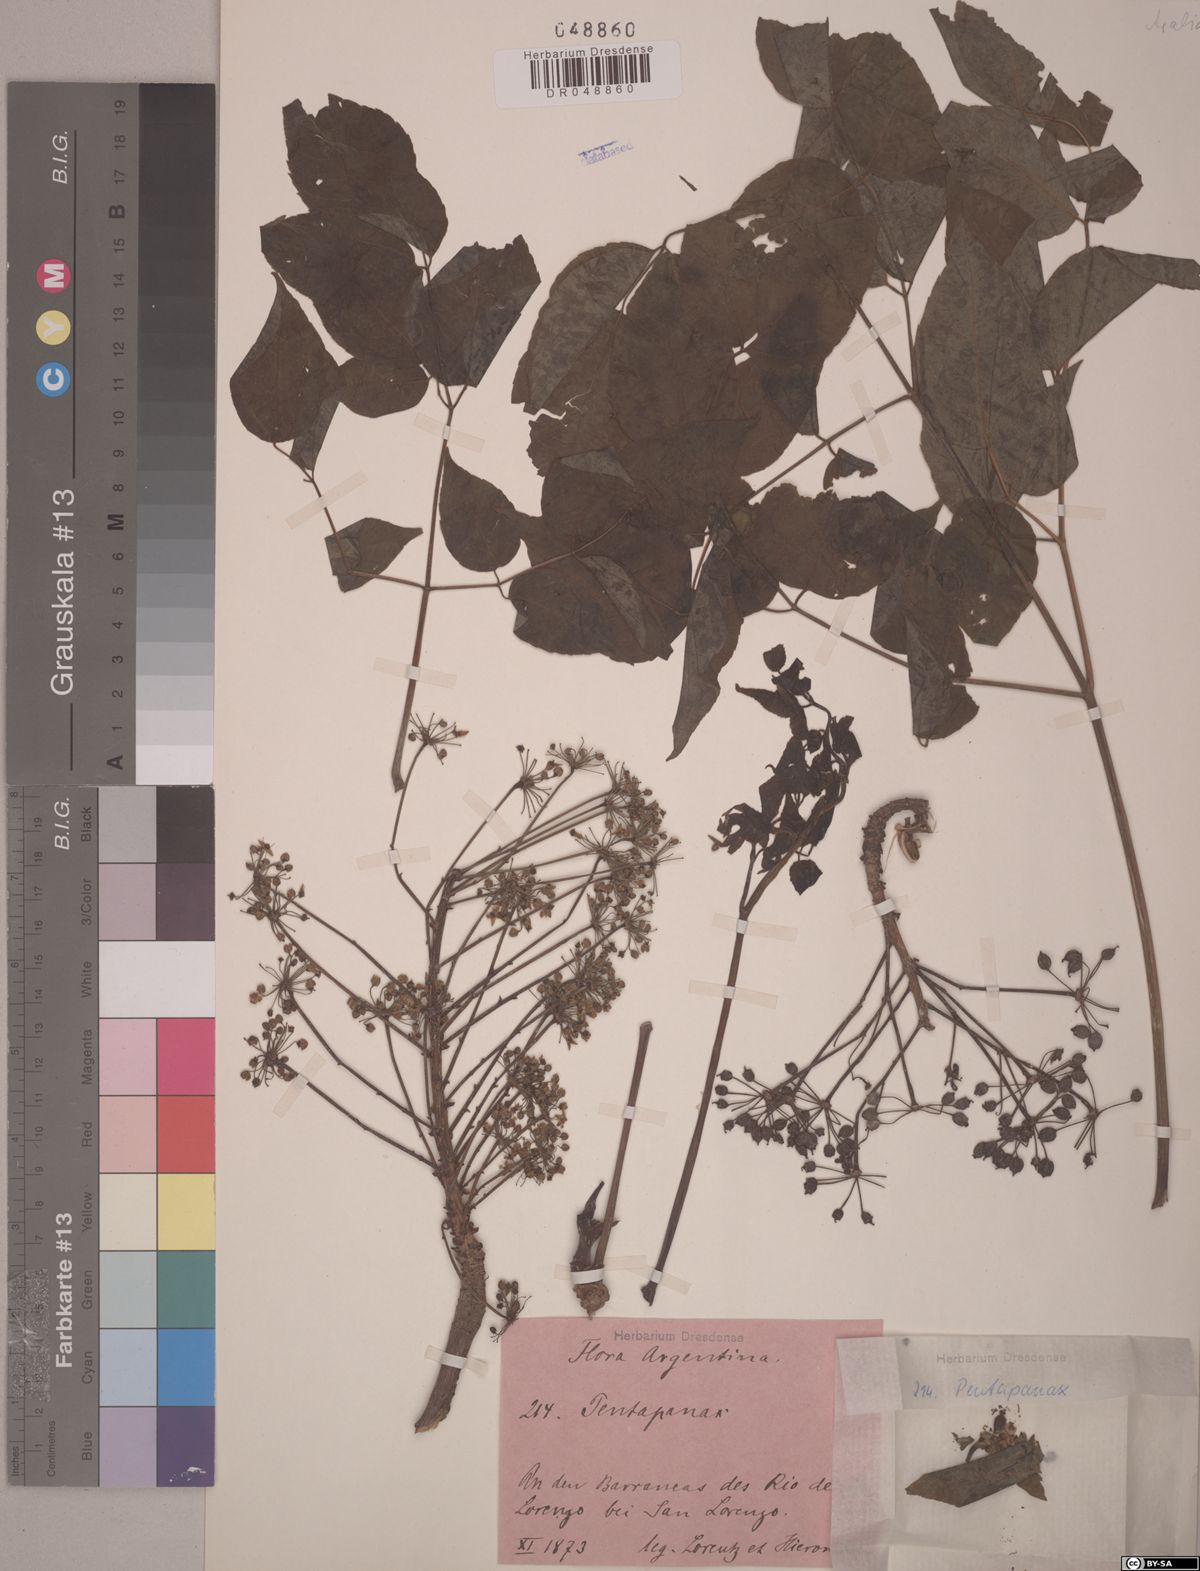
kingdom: Plantae
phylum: Tracheophyta
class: Magnoliopsida
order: Apiales
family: Araliaceae
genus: Aralia
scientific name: Aralia soratensis
